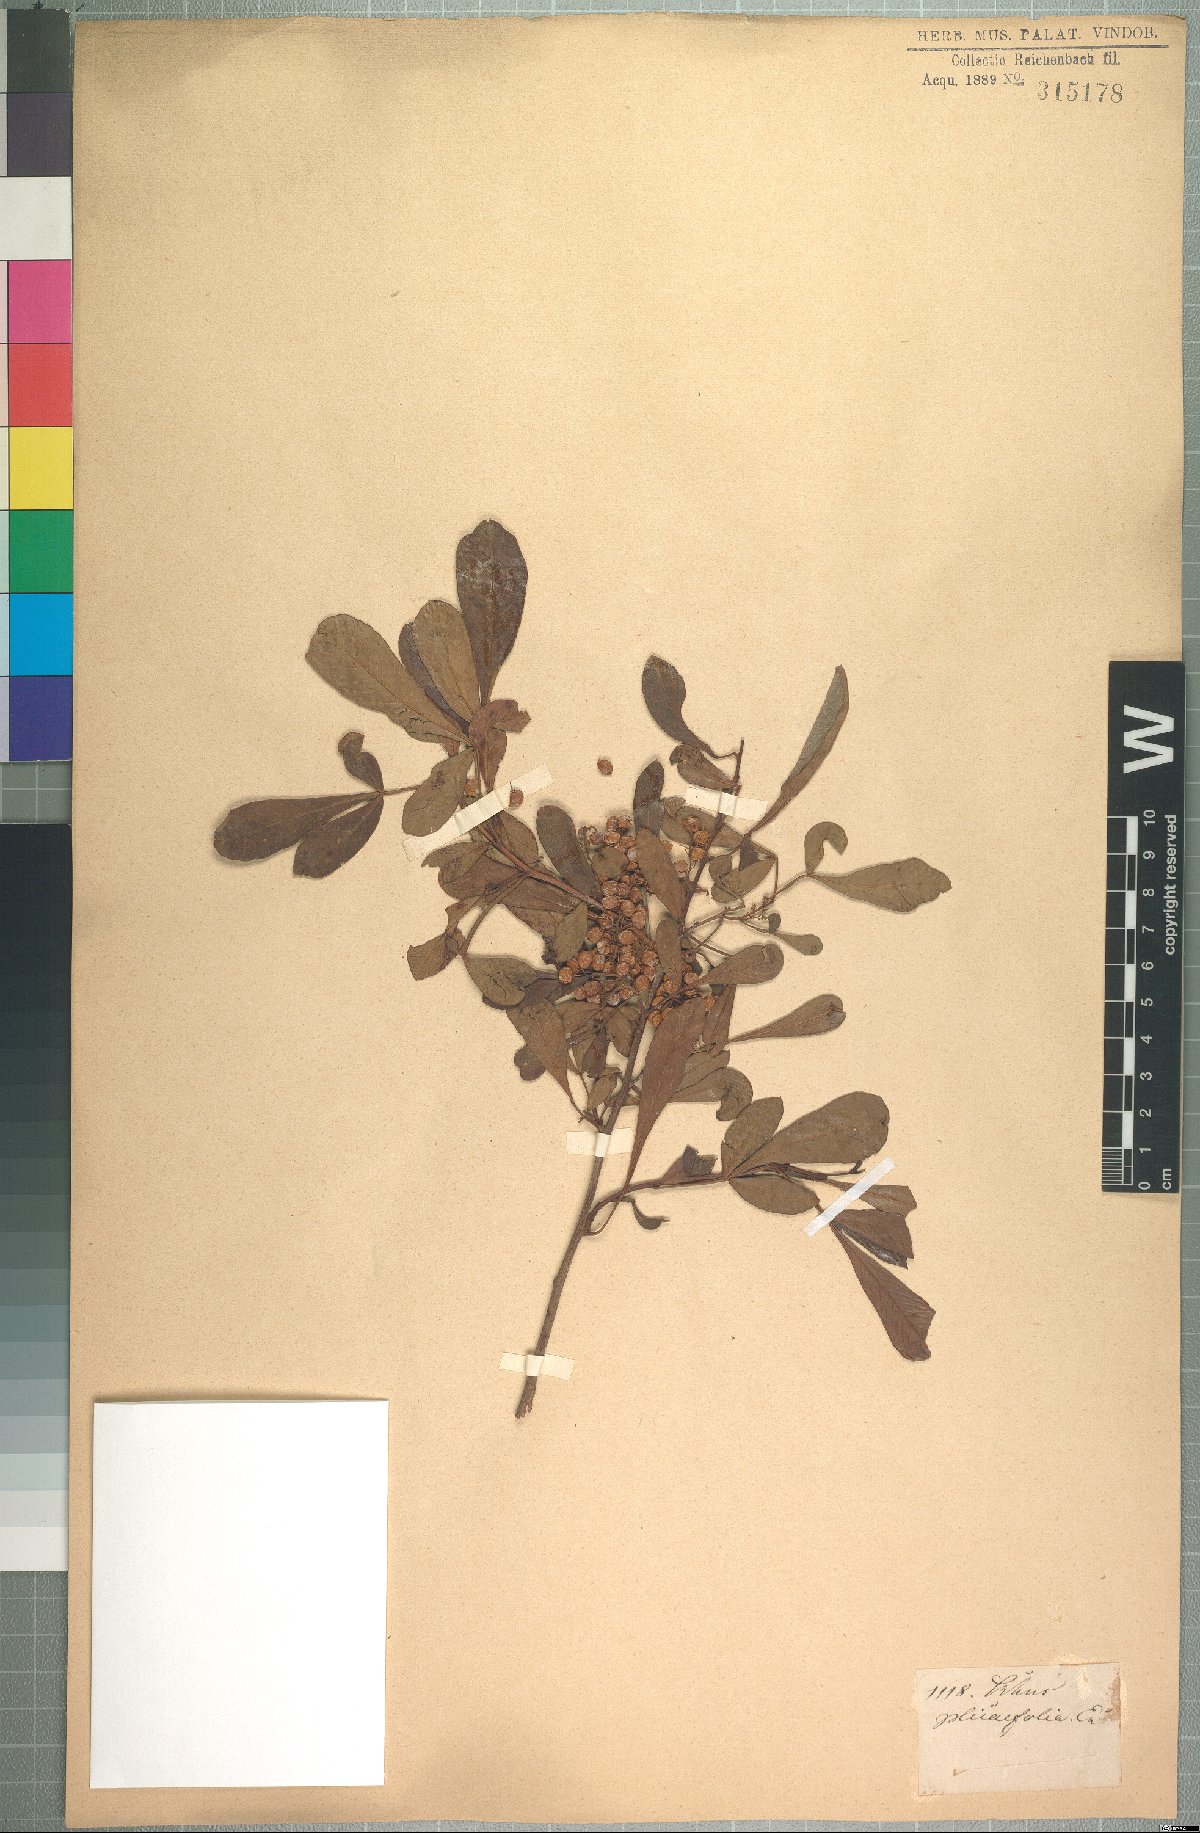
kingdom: Plantae
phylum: Tracheophyta
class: Magnoliopsida
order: Sapindales
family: Anacardiaceae
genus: Rhus
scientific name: Rhus plicaefolia
